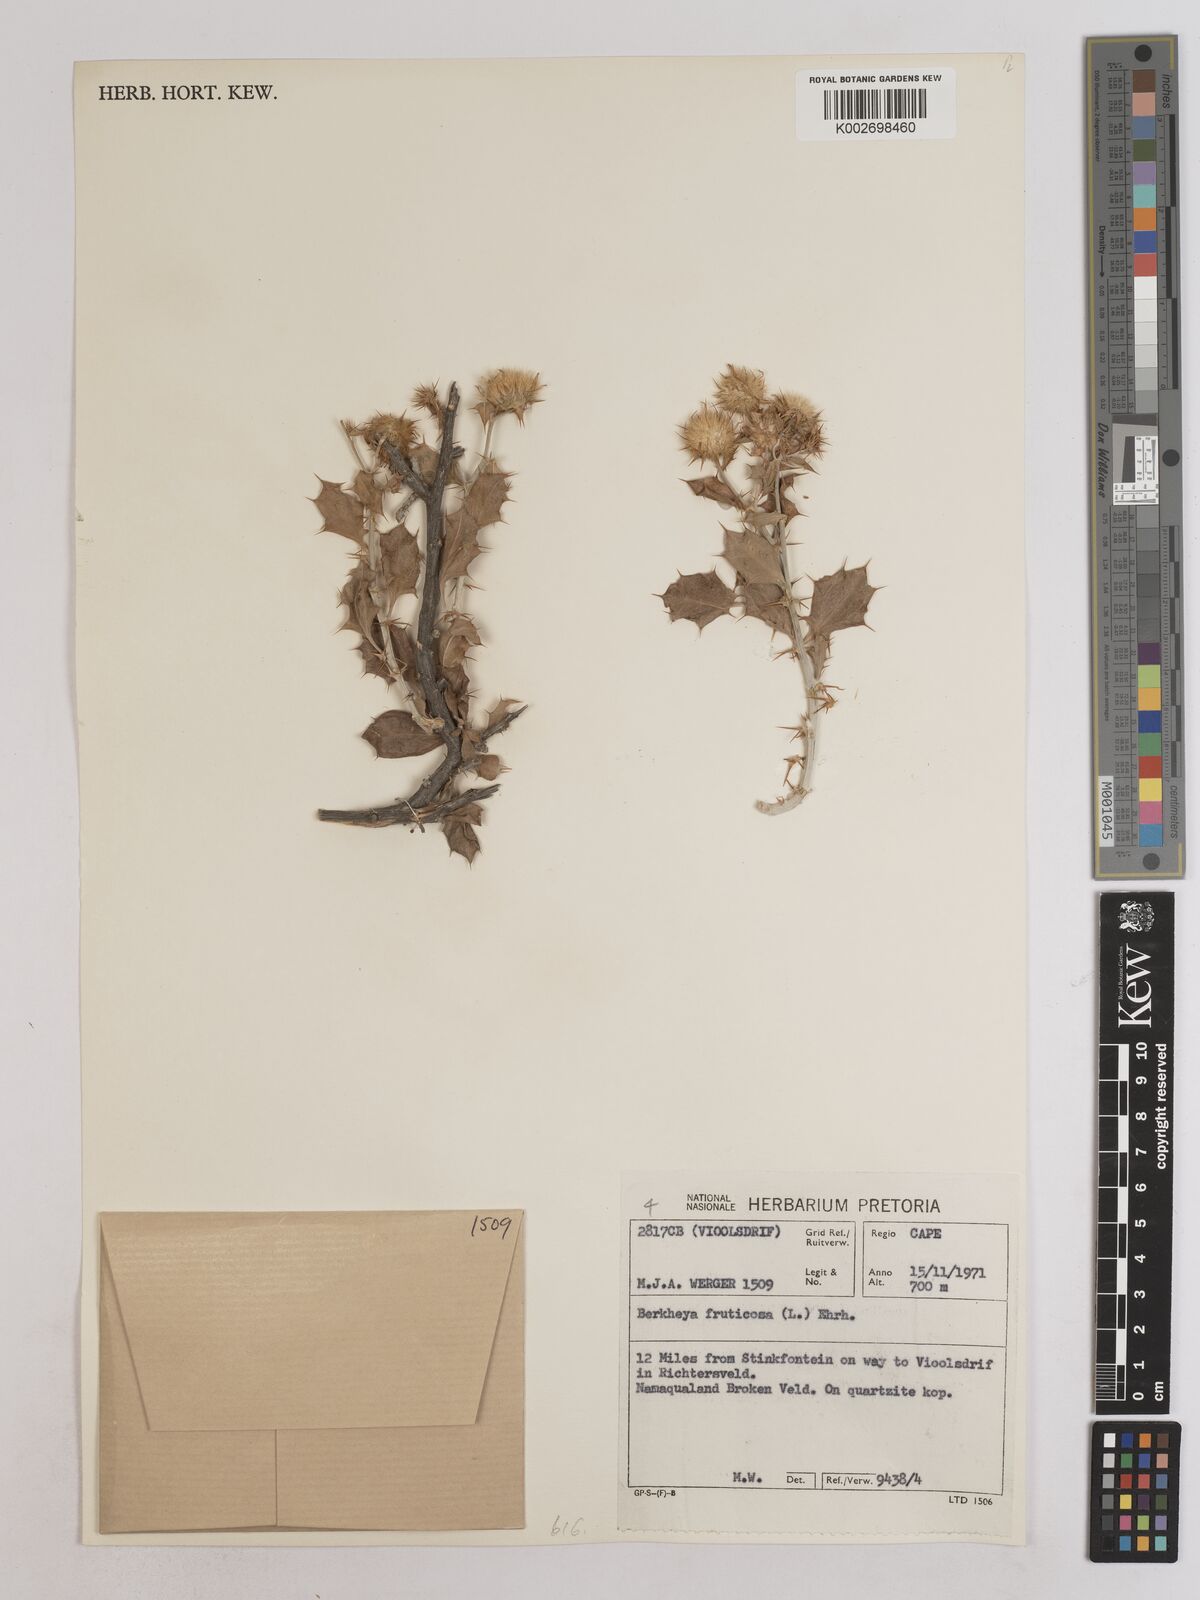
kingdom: Plantae
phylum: Tracheophyta
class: Magnoliopsida
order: Asterales
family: Asteraceae
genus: Berkheya
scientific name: Berkheya fruticosa
